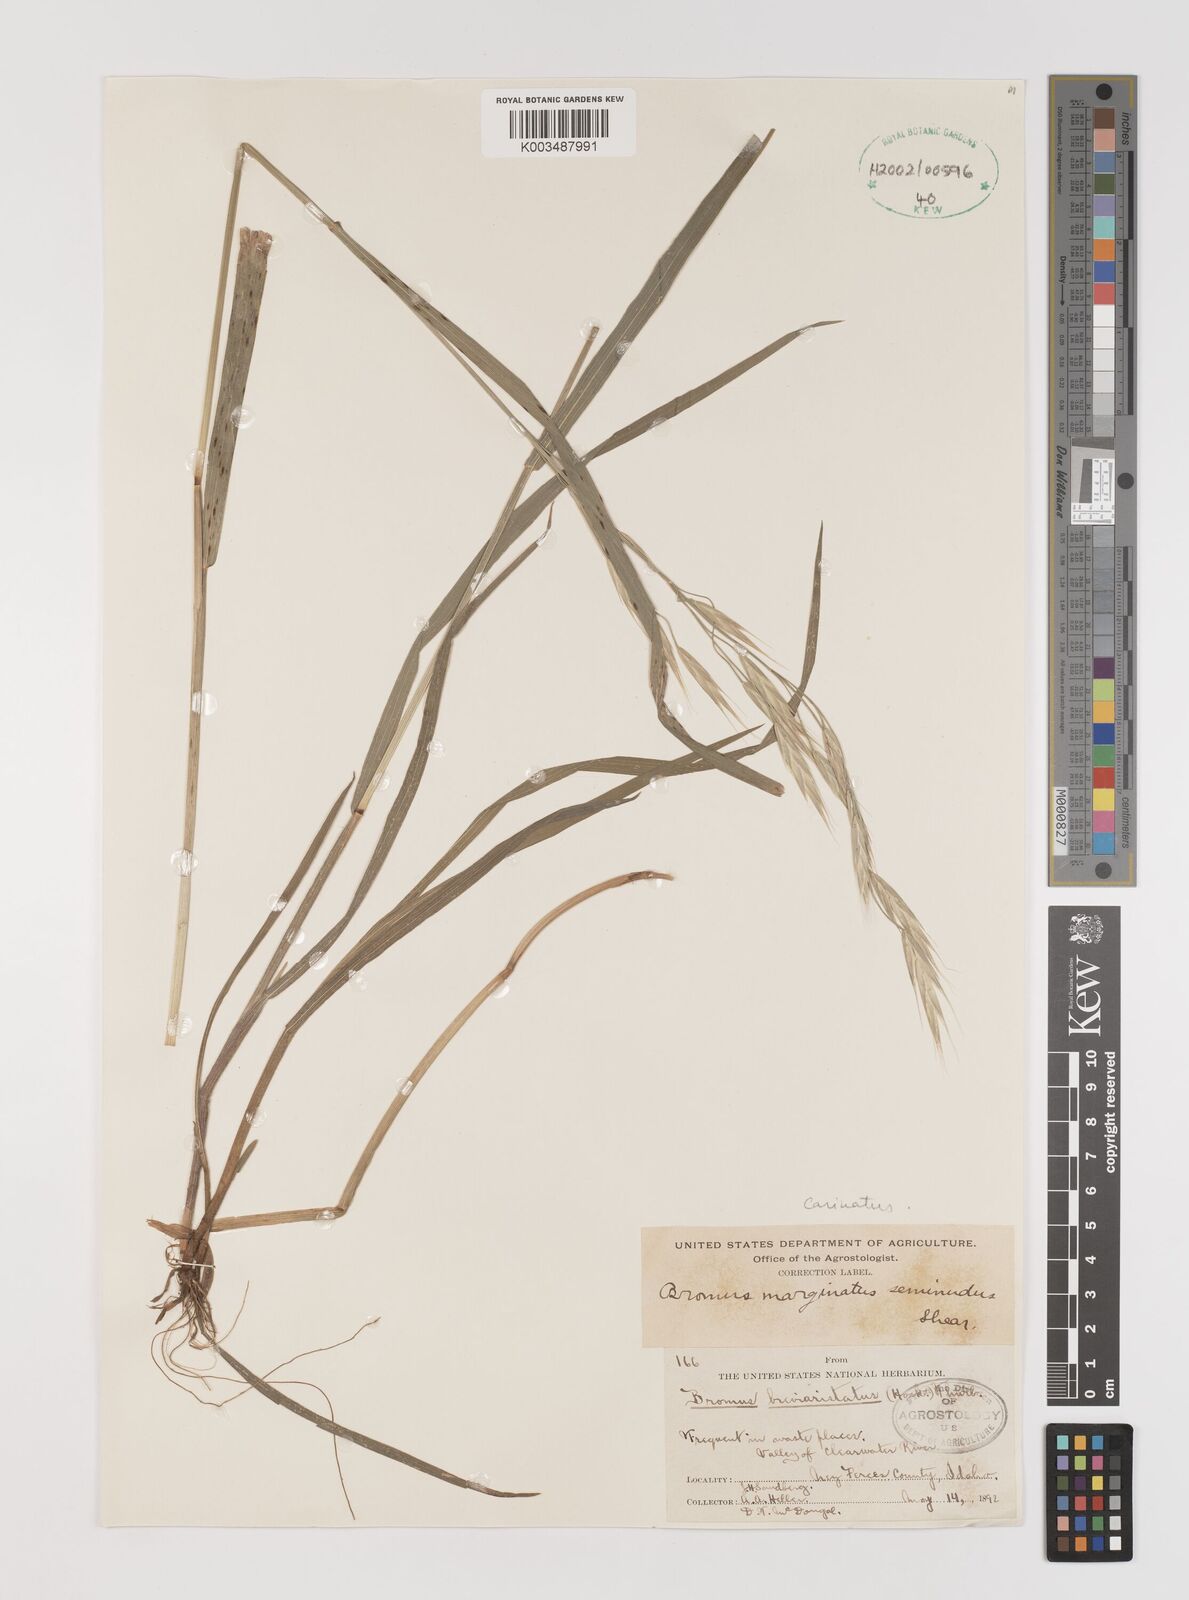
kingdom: Plantae
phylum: Tracheophyta
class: Liliopsida
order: Poales
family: Poaceae
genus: Bromus
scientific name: Bromus marginatus
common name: Western brome
